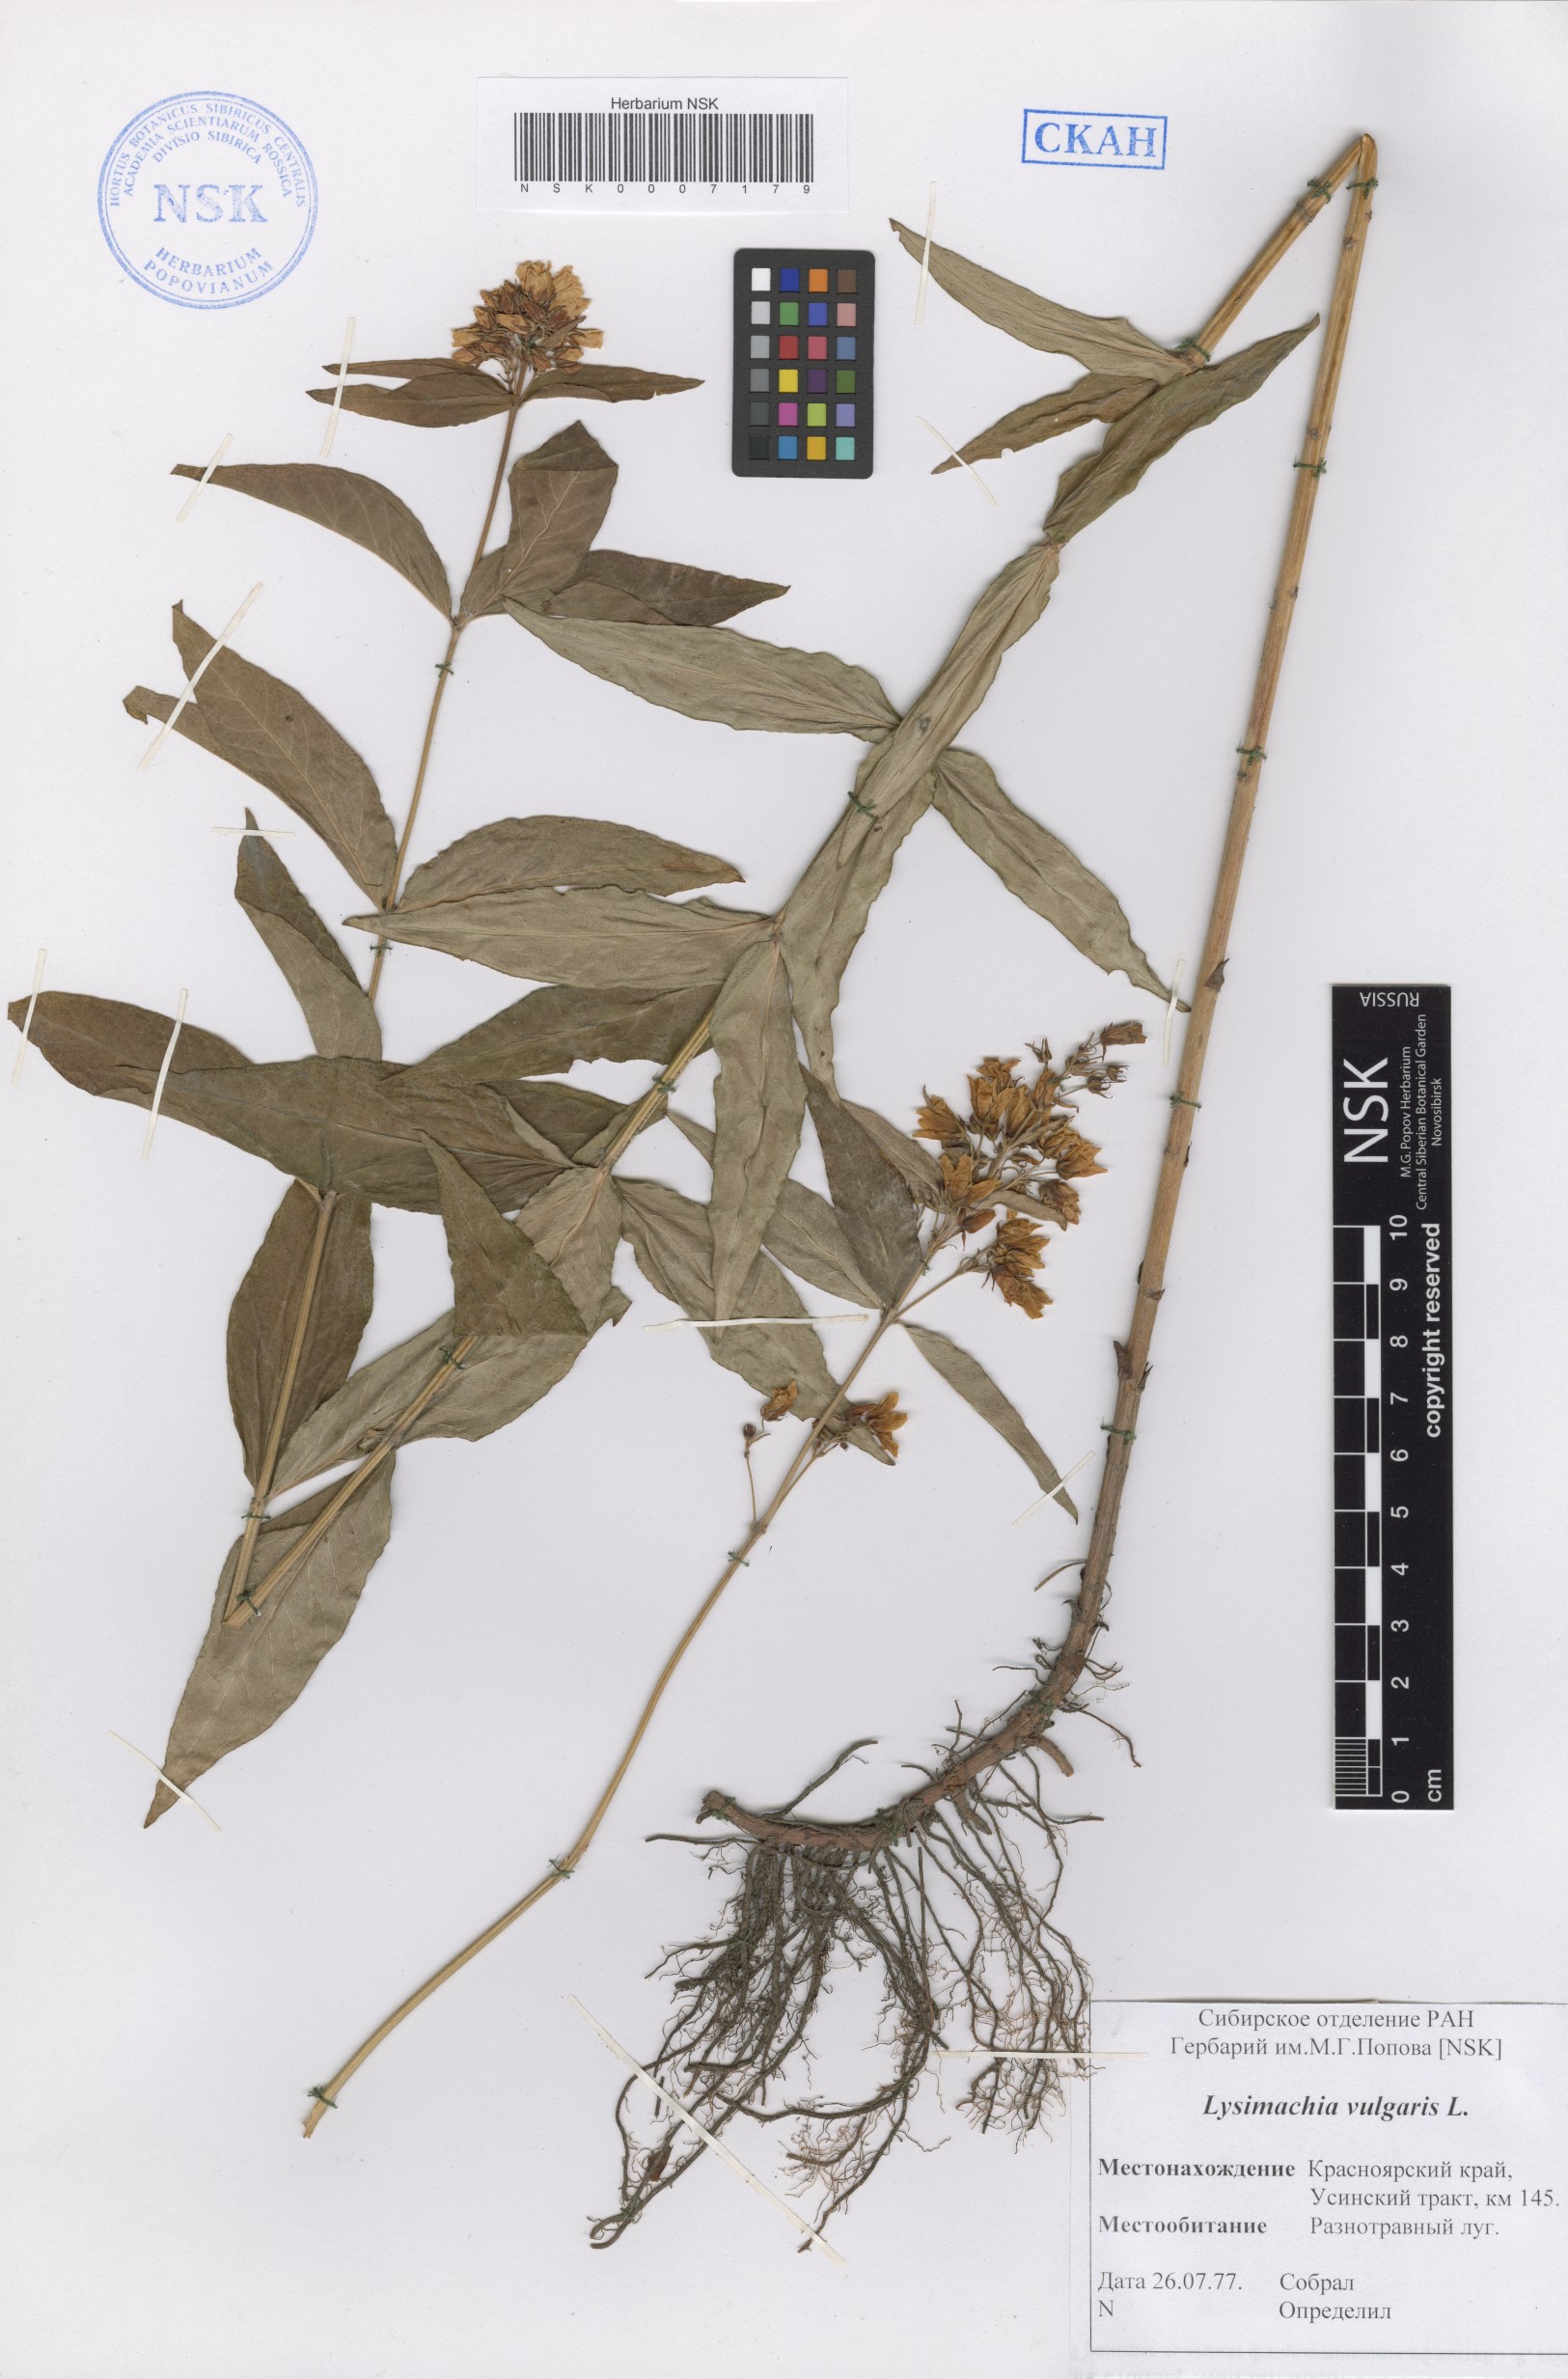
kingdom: Plantae
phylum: Tracheophyta
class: Magnoliopsida
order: Ericales
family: Primulaceae
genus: Lysimachia
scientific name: Lysimachia vulgaris
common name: Yellow loosestrife
